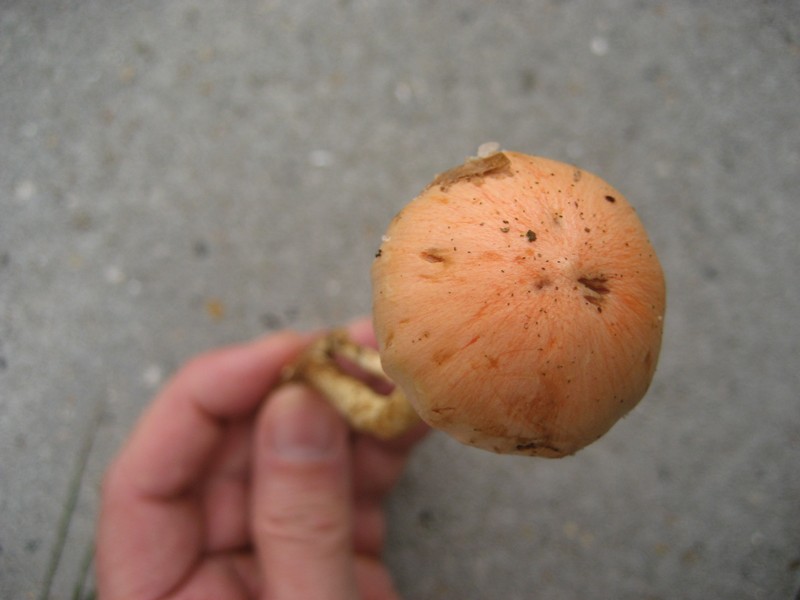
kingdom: Fungi
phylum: Basidiomycota
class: Agaricomycetes
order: Agaricales
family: Strophariaceae
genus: Pyrrhulomyces
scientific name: Pyrrhulomyces astragalinus
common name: safran-skælhat
